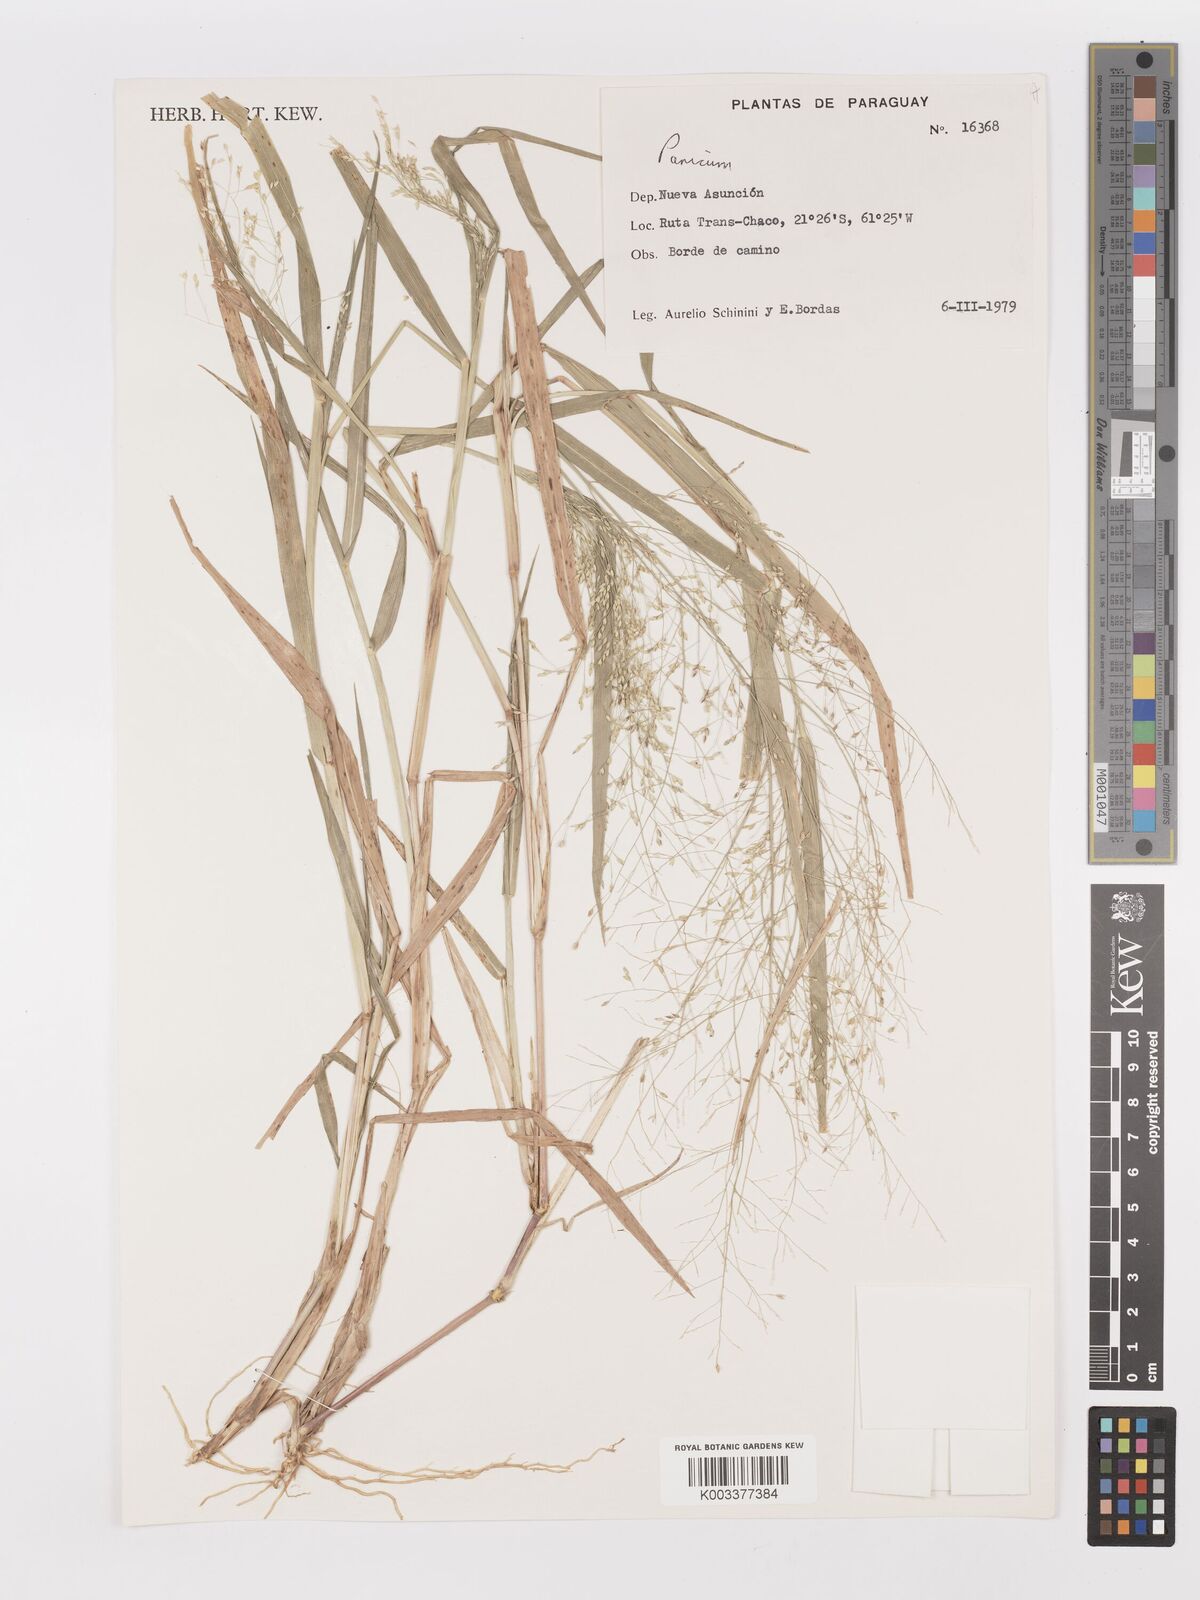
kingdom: Plantae
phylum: Tracheophyta
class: Liliopsida
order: Poales
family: Poaceae
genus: Panicum
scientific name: Panicum
